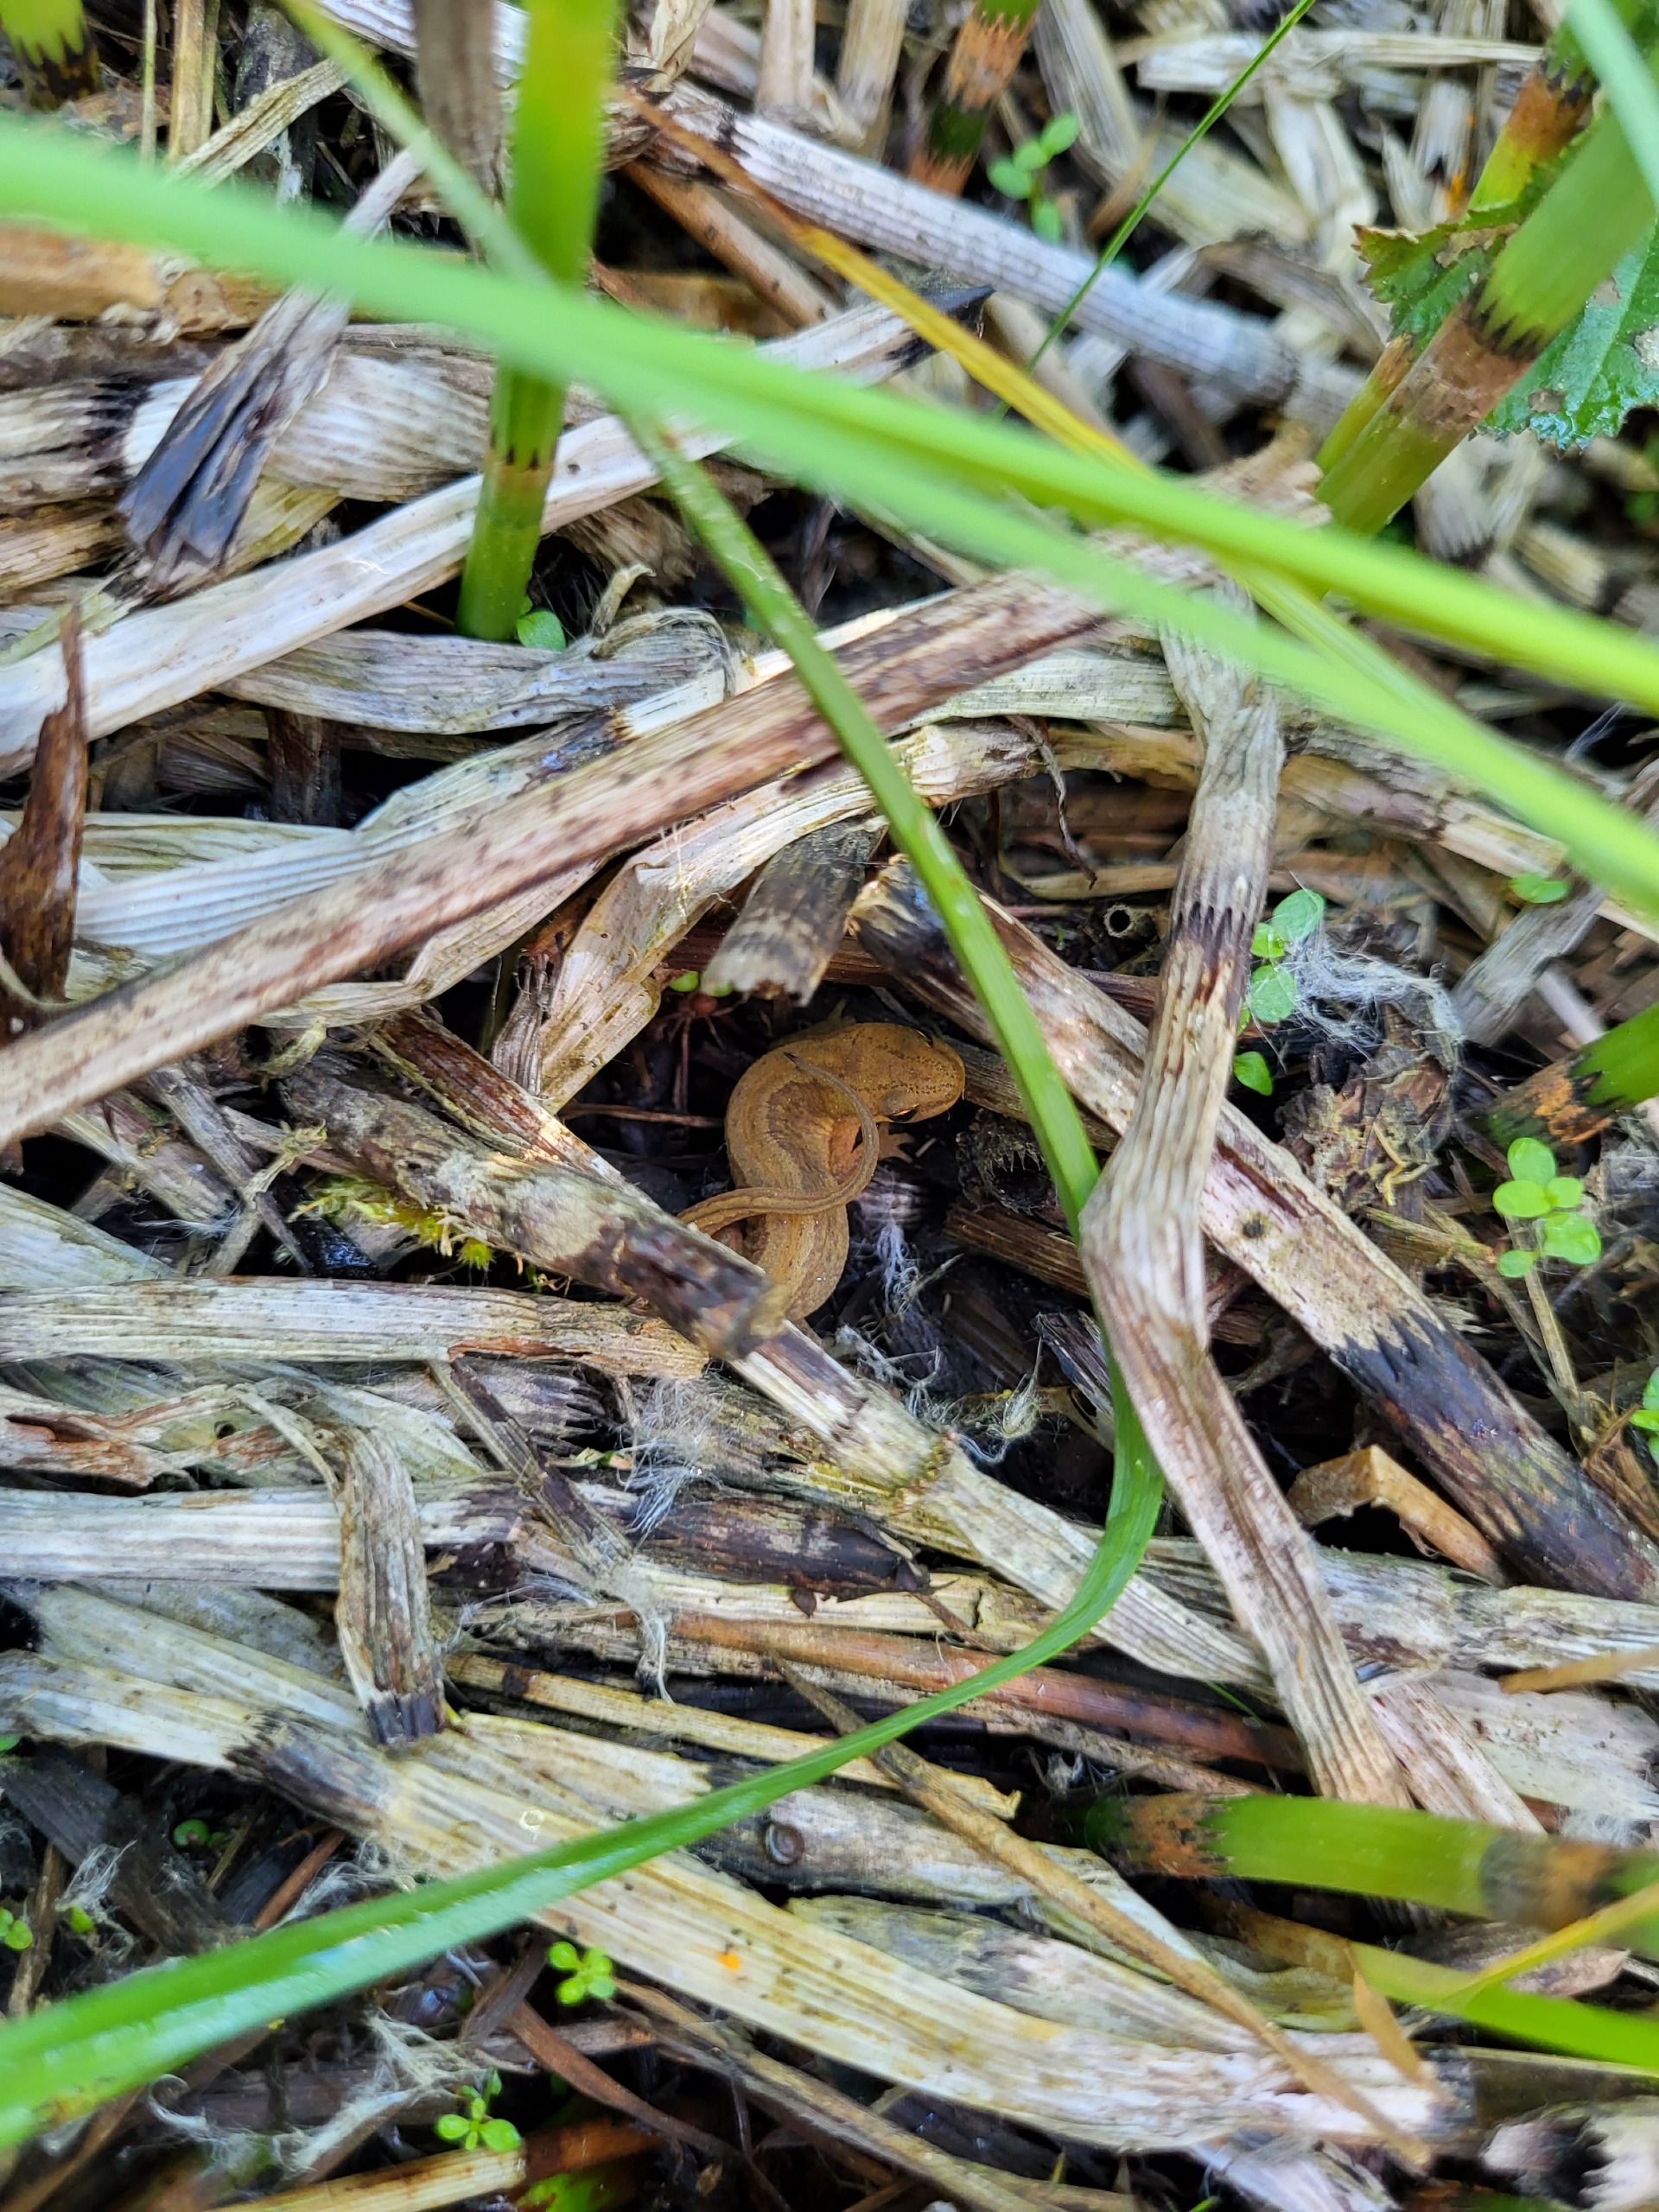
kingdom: Animalia
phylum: Chordata
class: Amphibia
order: Caudata
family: Salamandridae
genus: Lissotriton
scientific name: Lissotriton vulgaris
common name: Lille vandsalamander
